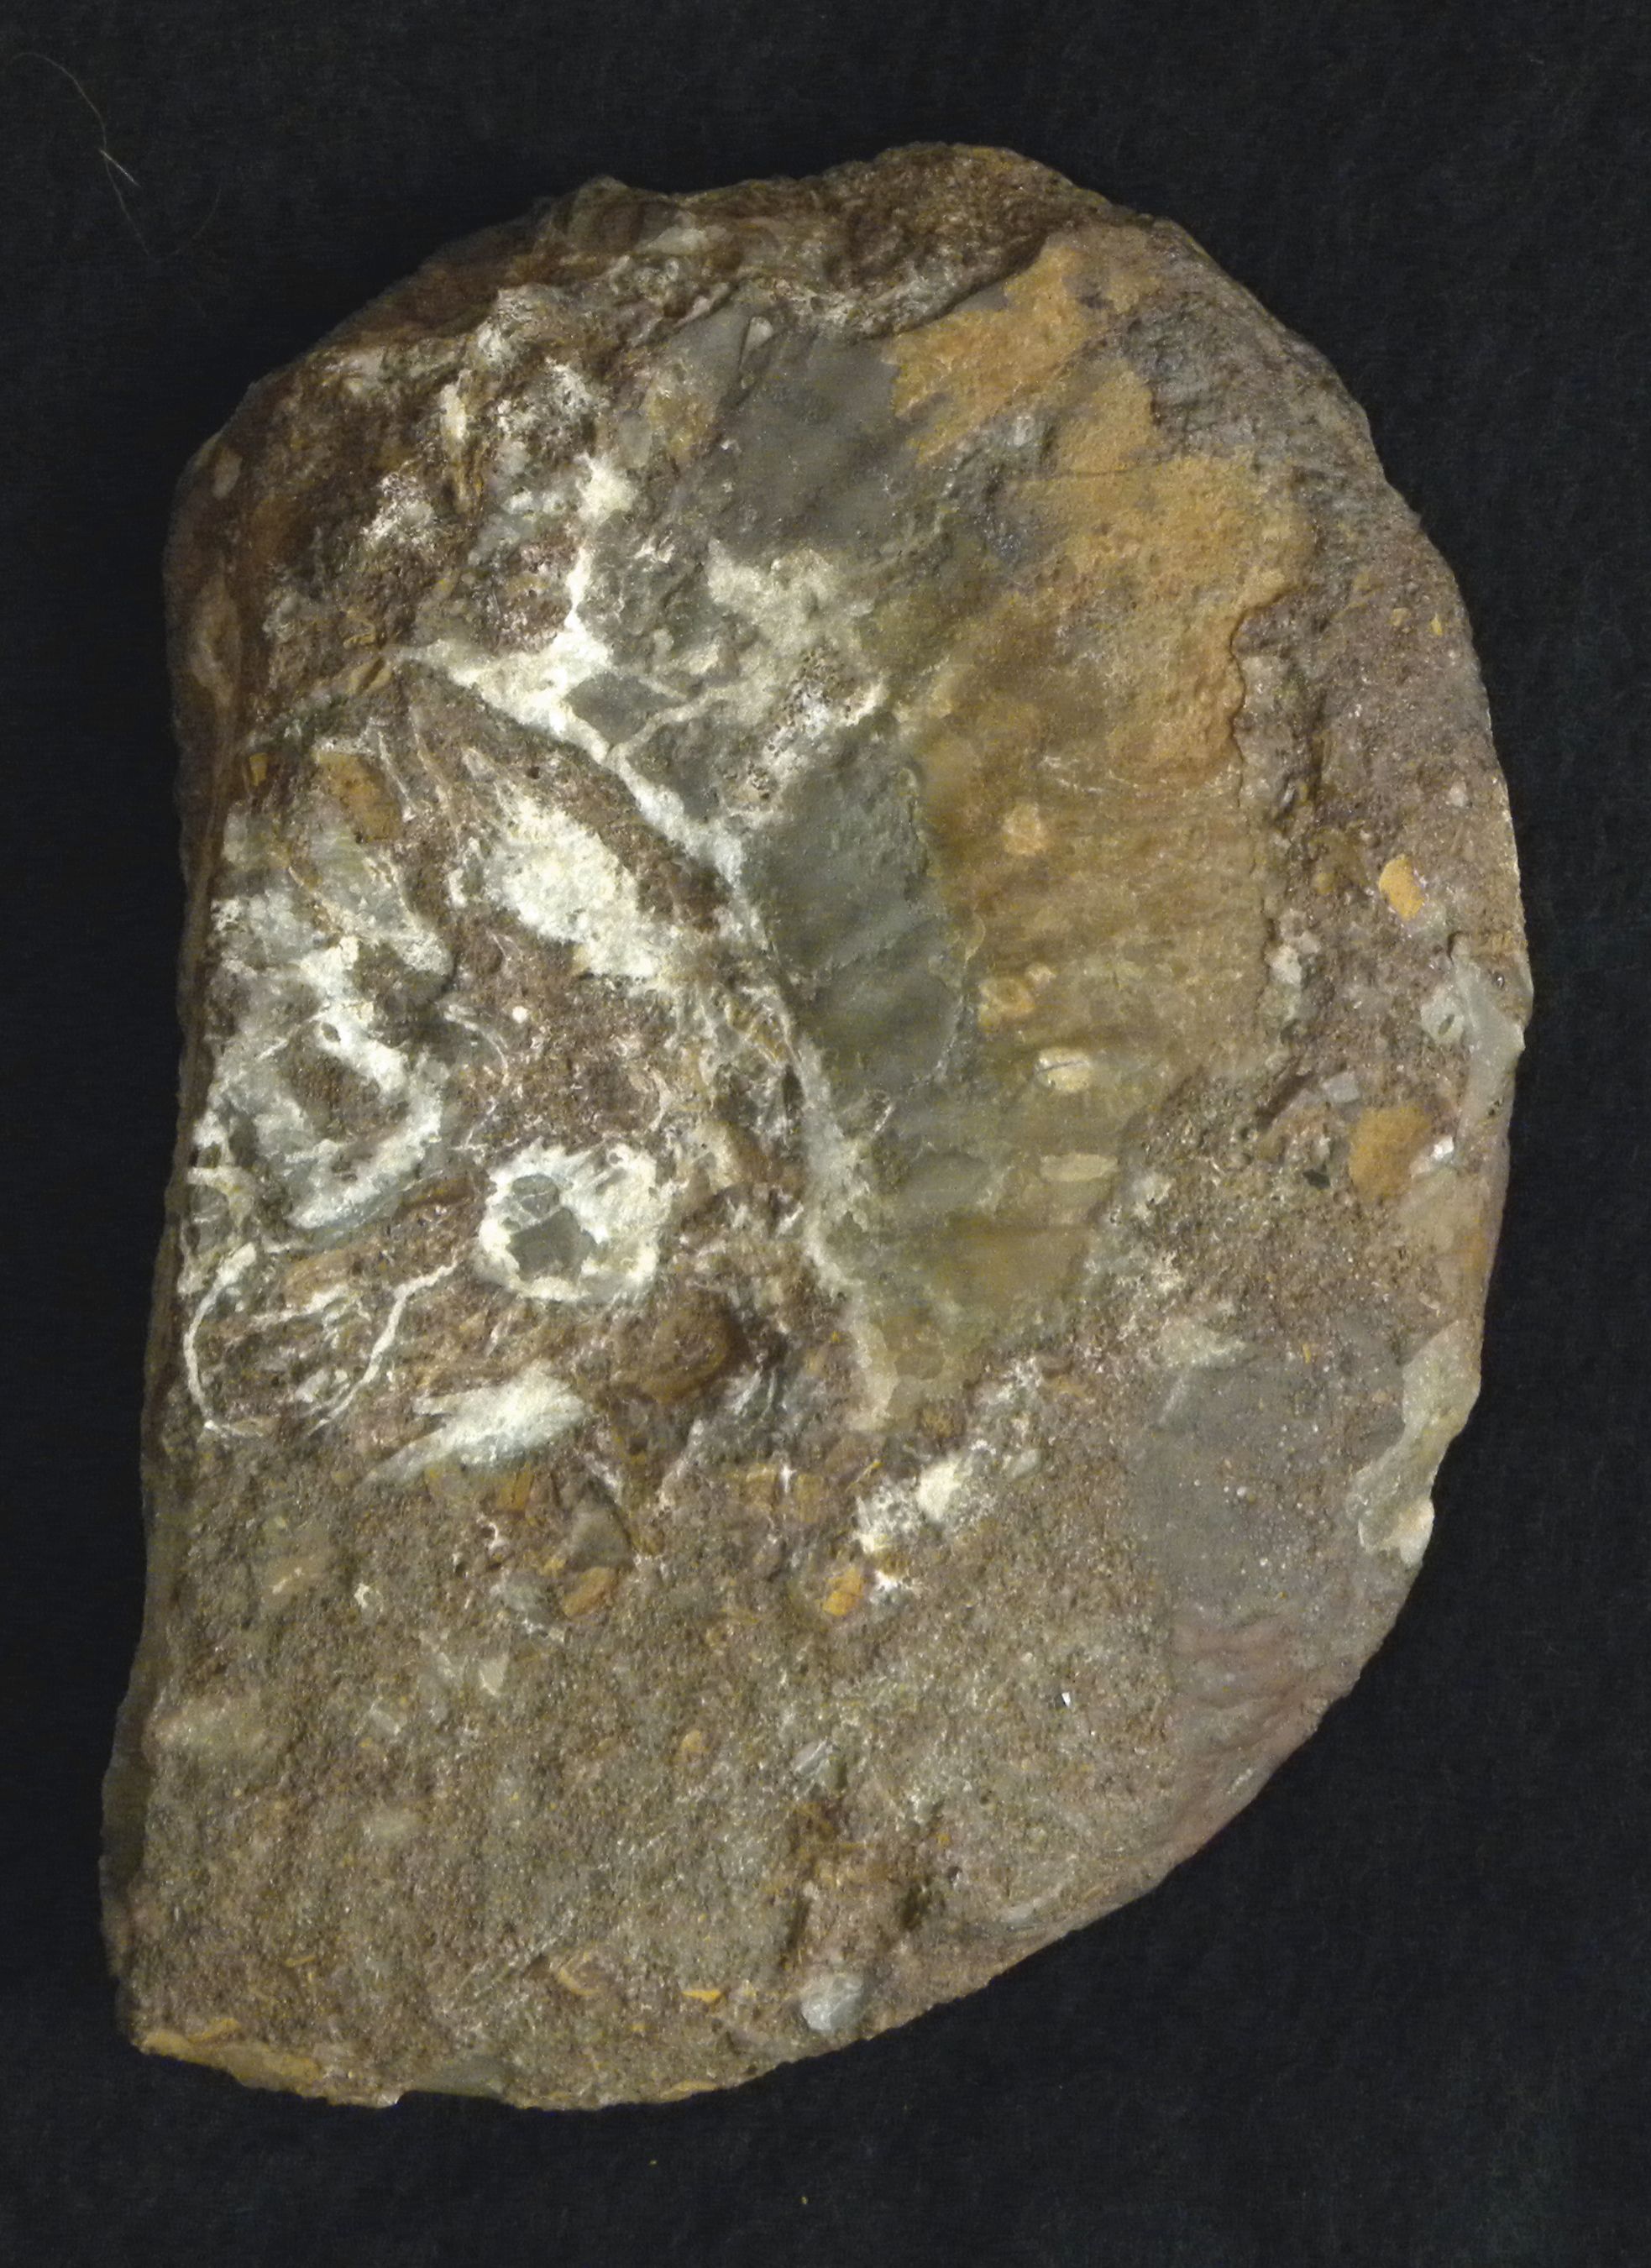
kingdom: Animalia
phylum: Mollusca
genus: Walkericeras
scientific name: Walkericeras
